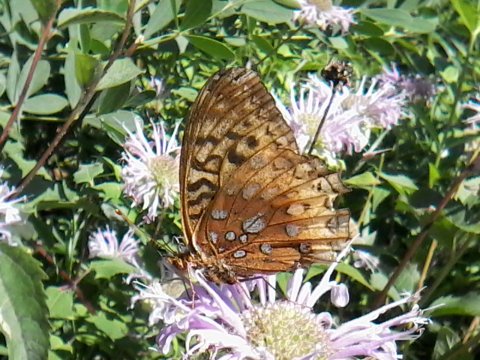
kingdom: Animalia
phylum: Arthropoda
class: Insecta
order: Lepidoptera
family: Nymphalidae
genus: Speyeria
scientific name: Speyeria cybele
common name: Great Spangled Fritillary
